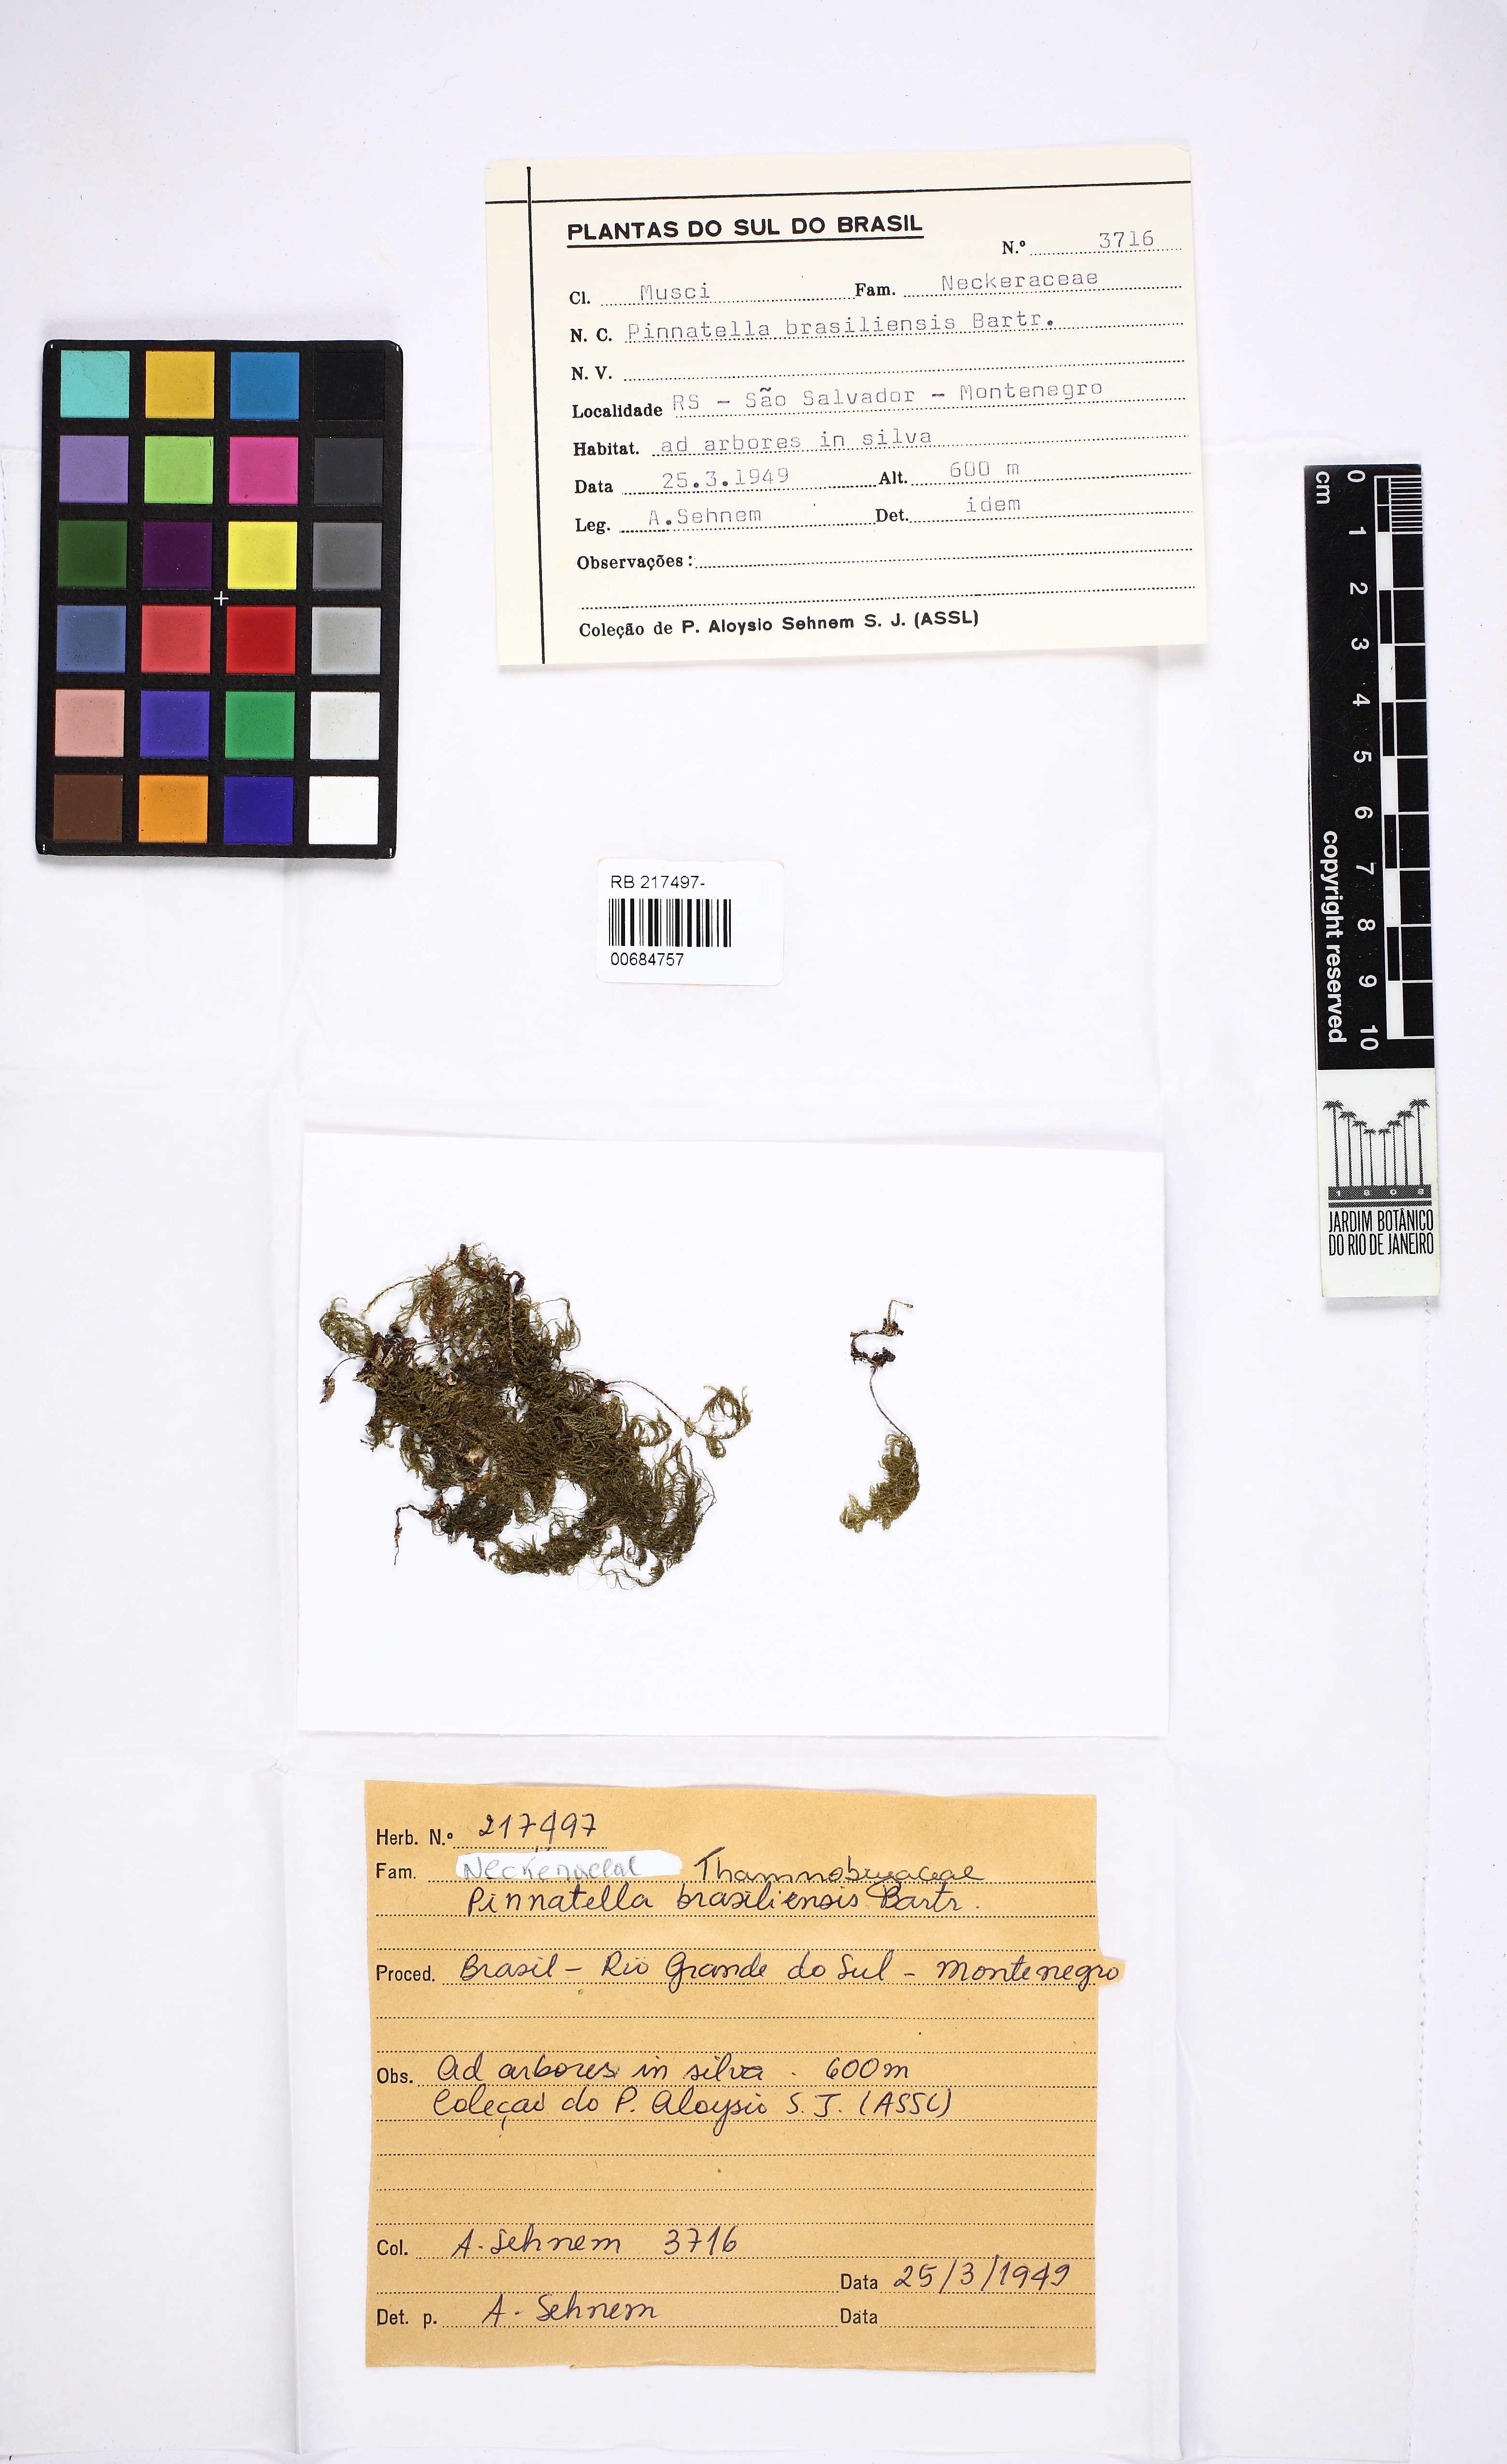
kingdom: Plantae
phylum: Bryophyta
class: Bryopsida
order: Hypnales
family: Neckeraceae
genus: Porotrichum
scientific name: Porotrichum thieleanum
